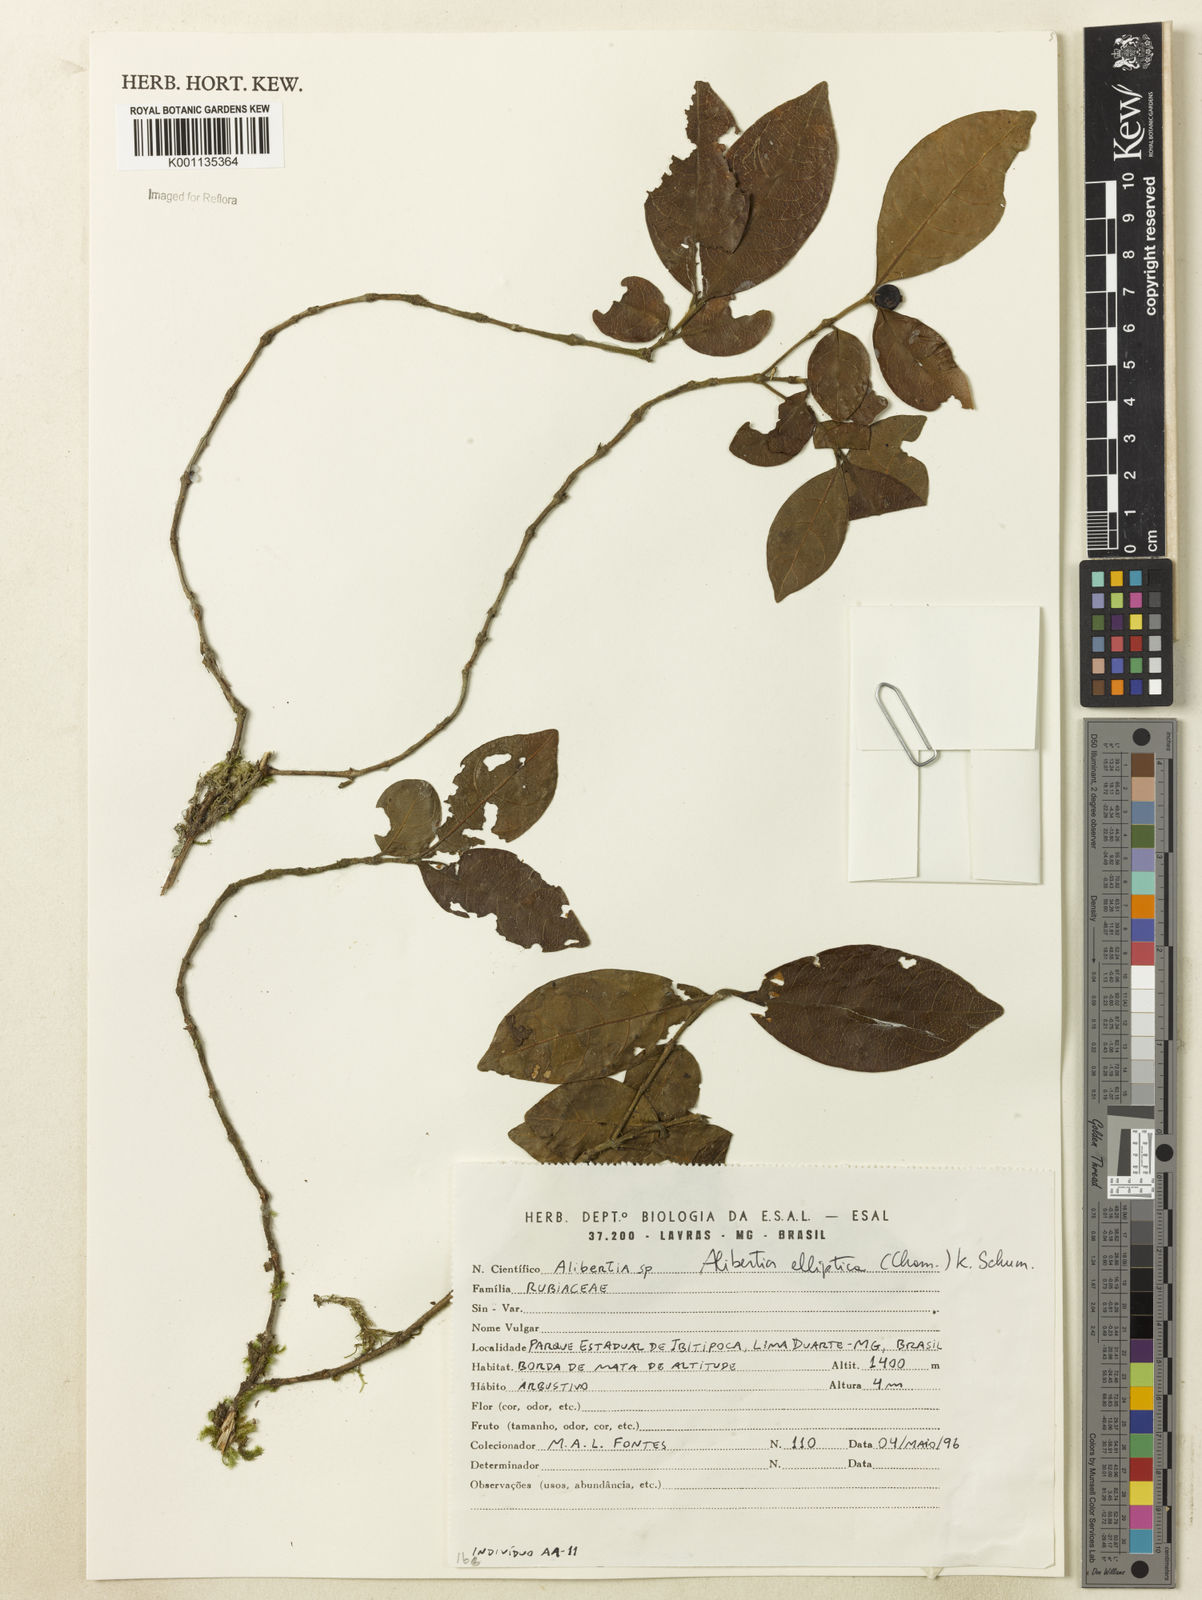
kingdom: Plantae
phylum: Tracheophyta
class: Magnoliopsida
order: Gentianales
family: Rubiaceae
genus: Cordiera
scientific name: Cordiera elliptica
